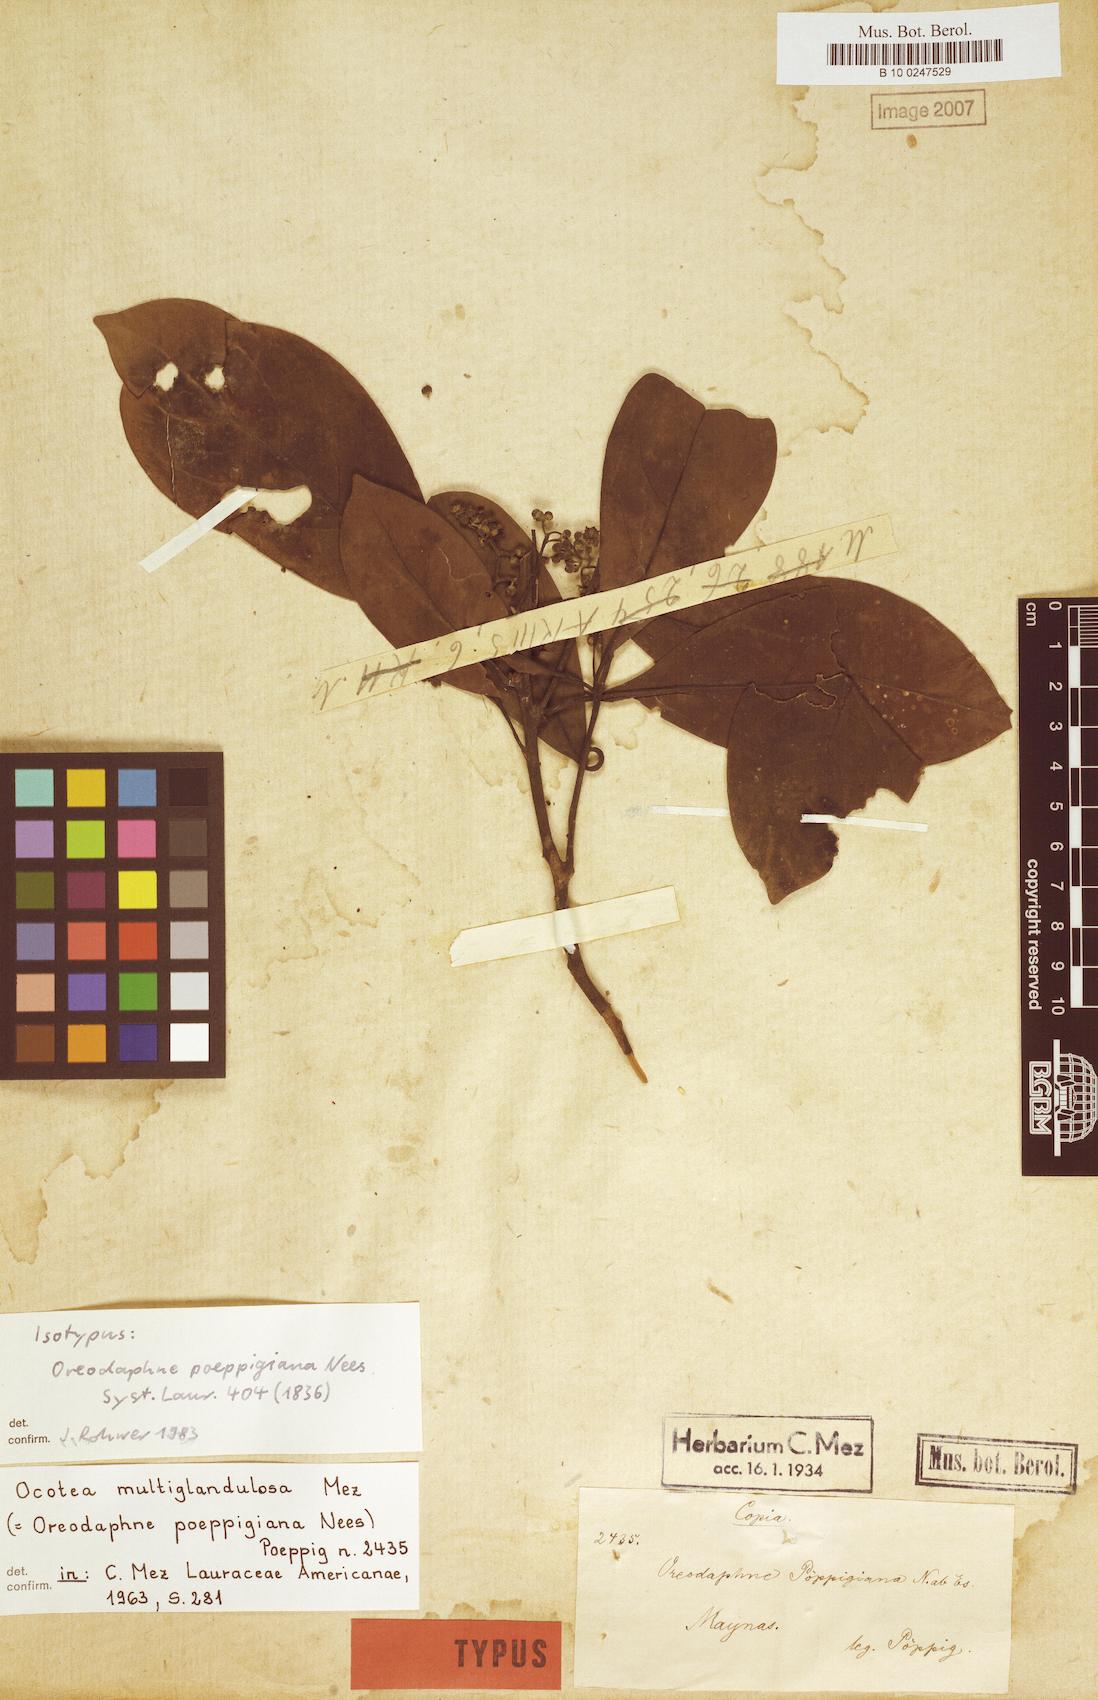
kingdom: Plantae
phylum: Tracheophyta
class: Magnoliopsida
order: Laurales
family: Lauraceae
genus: Ocotea
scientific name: Ocotea floribunda
